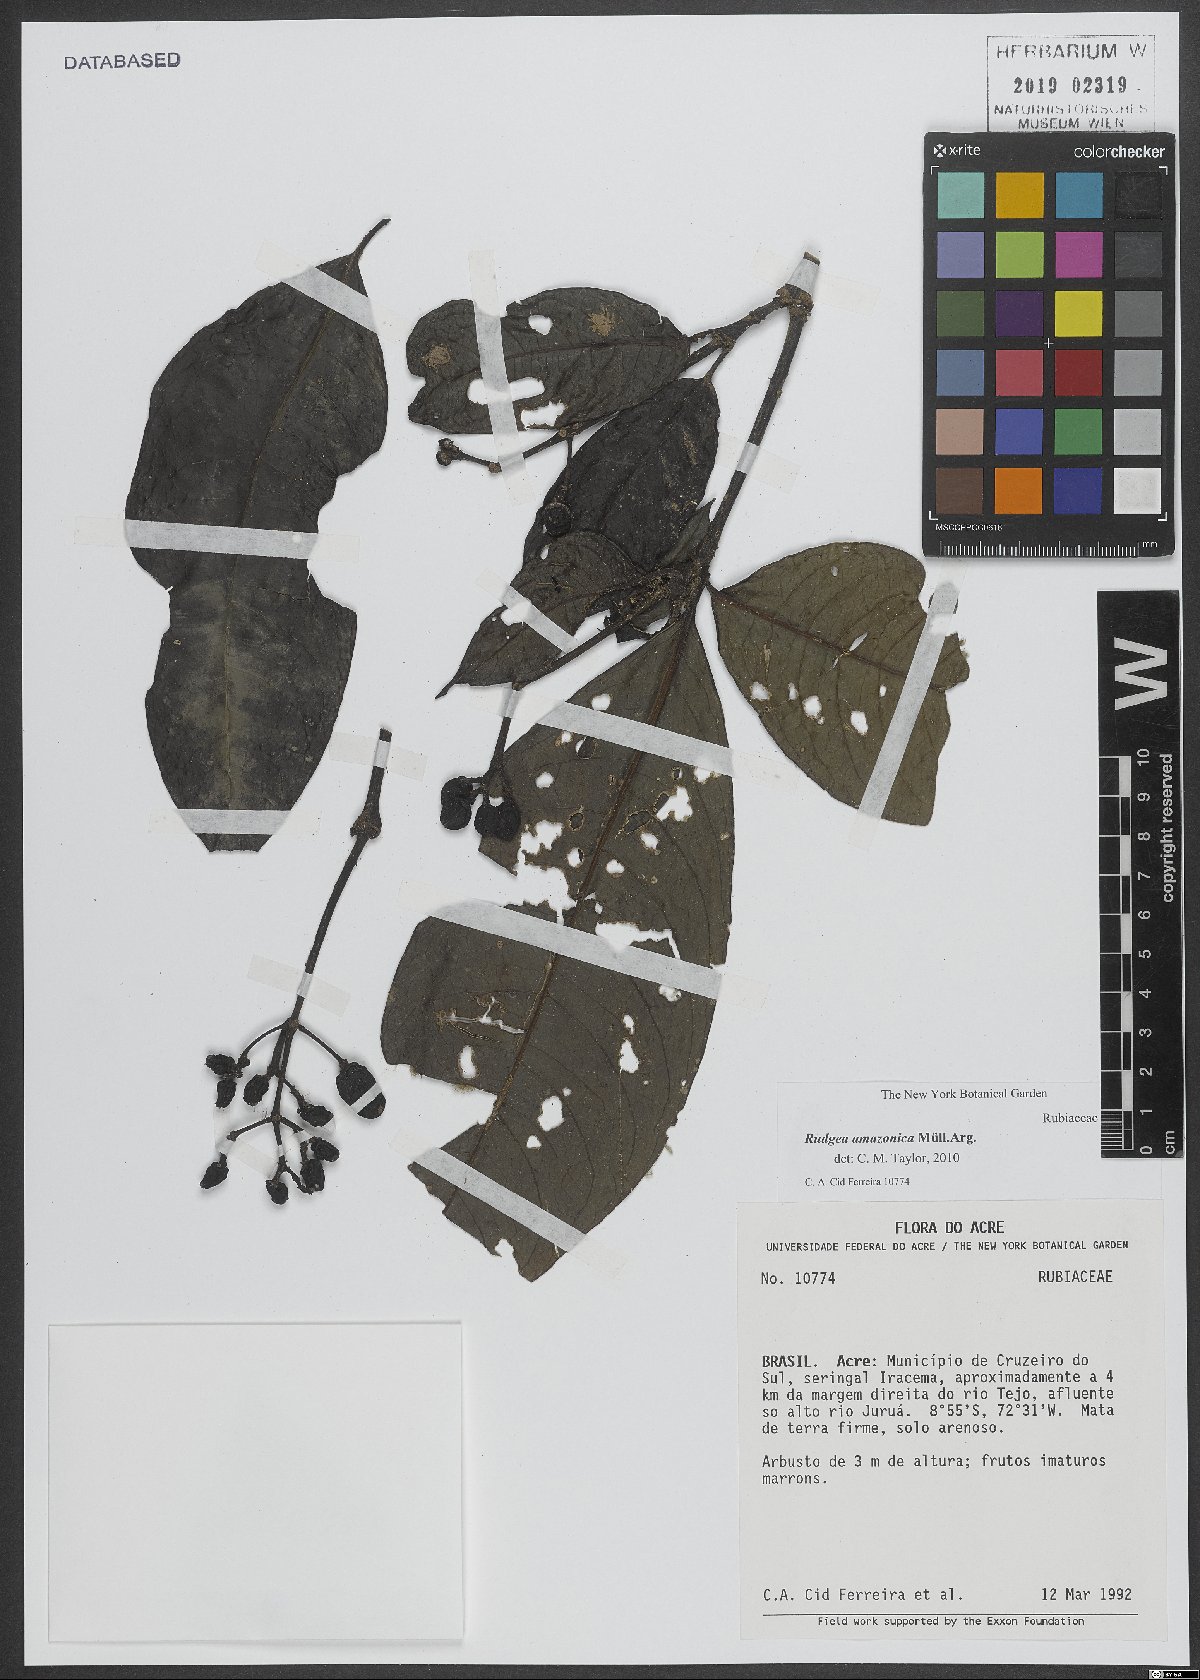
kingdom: Plantae
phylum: Tracheophyta
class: Magnoliopsida
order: Gentianales
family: Rubiaceae
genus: Rudgea
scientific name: Rudgea amazonica
